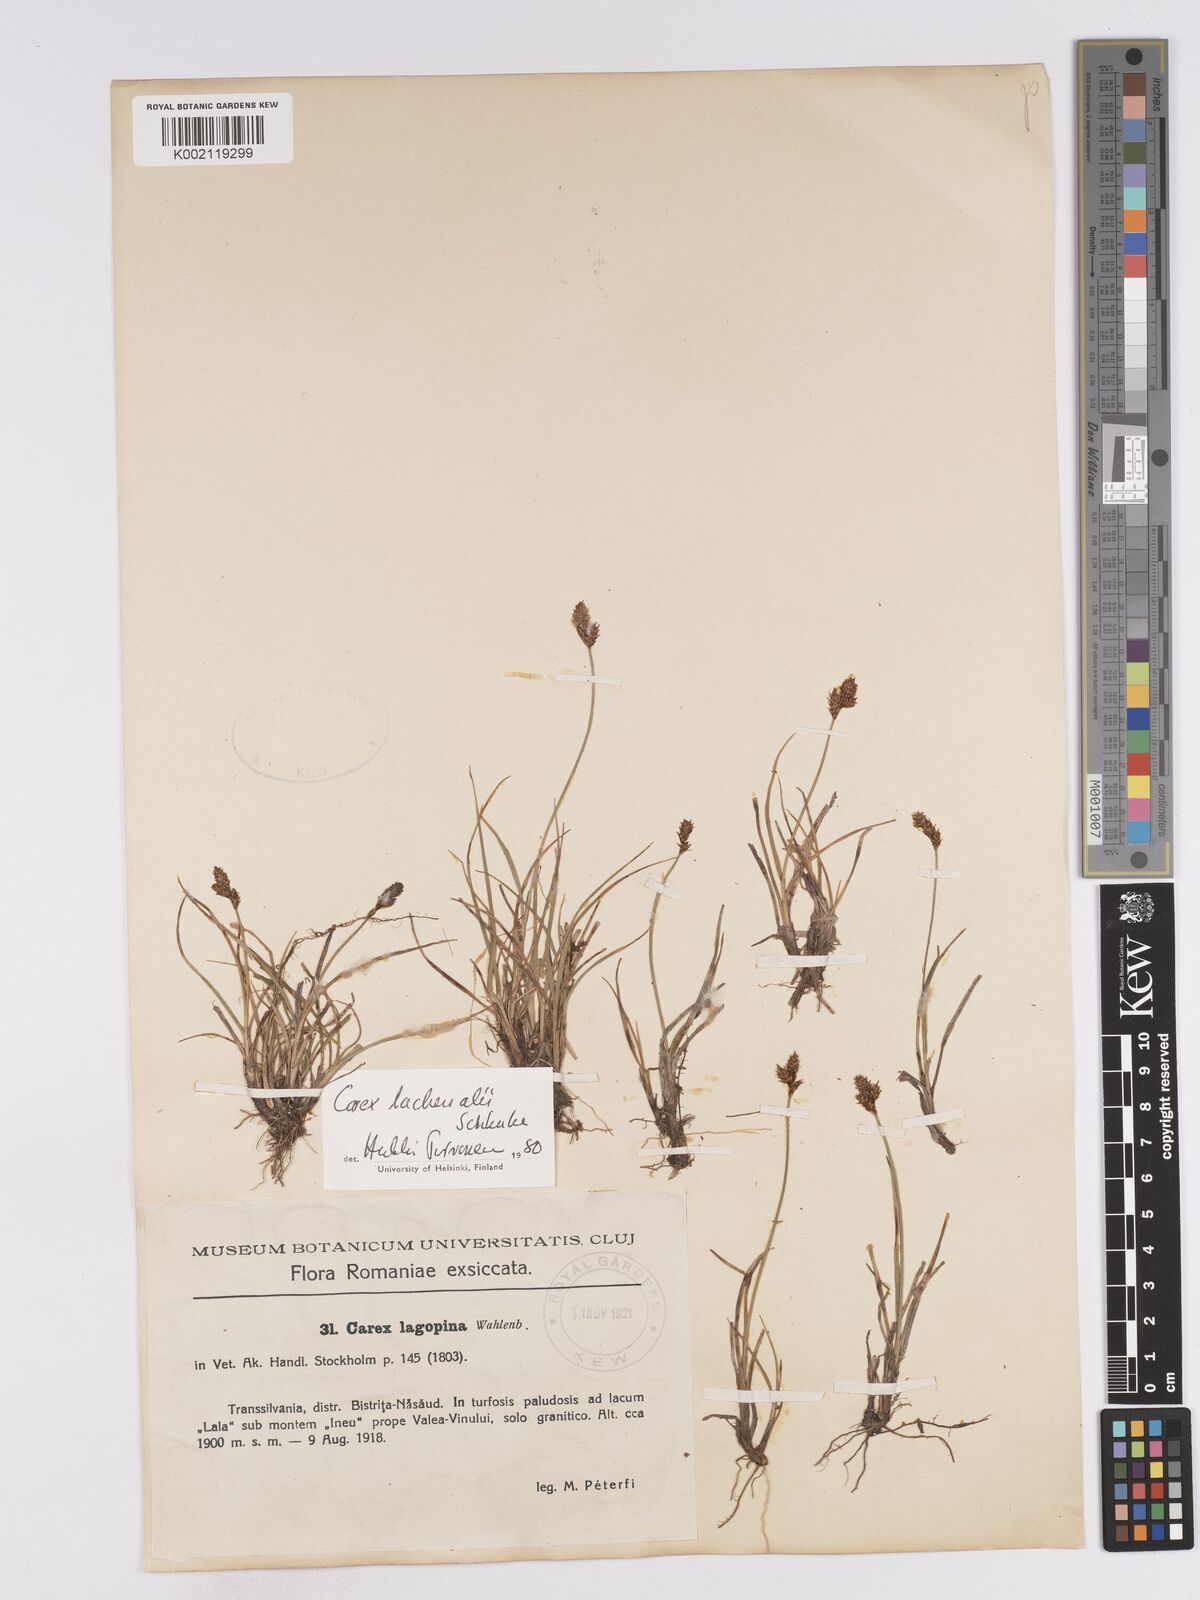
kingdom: Plantae
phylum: Tracheophyta
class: Liliopsida
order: Poales
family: Cyperaceae
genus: Carex
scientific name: Carex lachenalii
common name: Hare's-foot sedge
